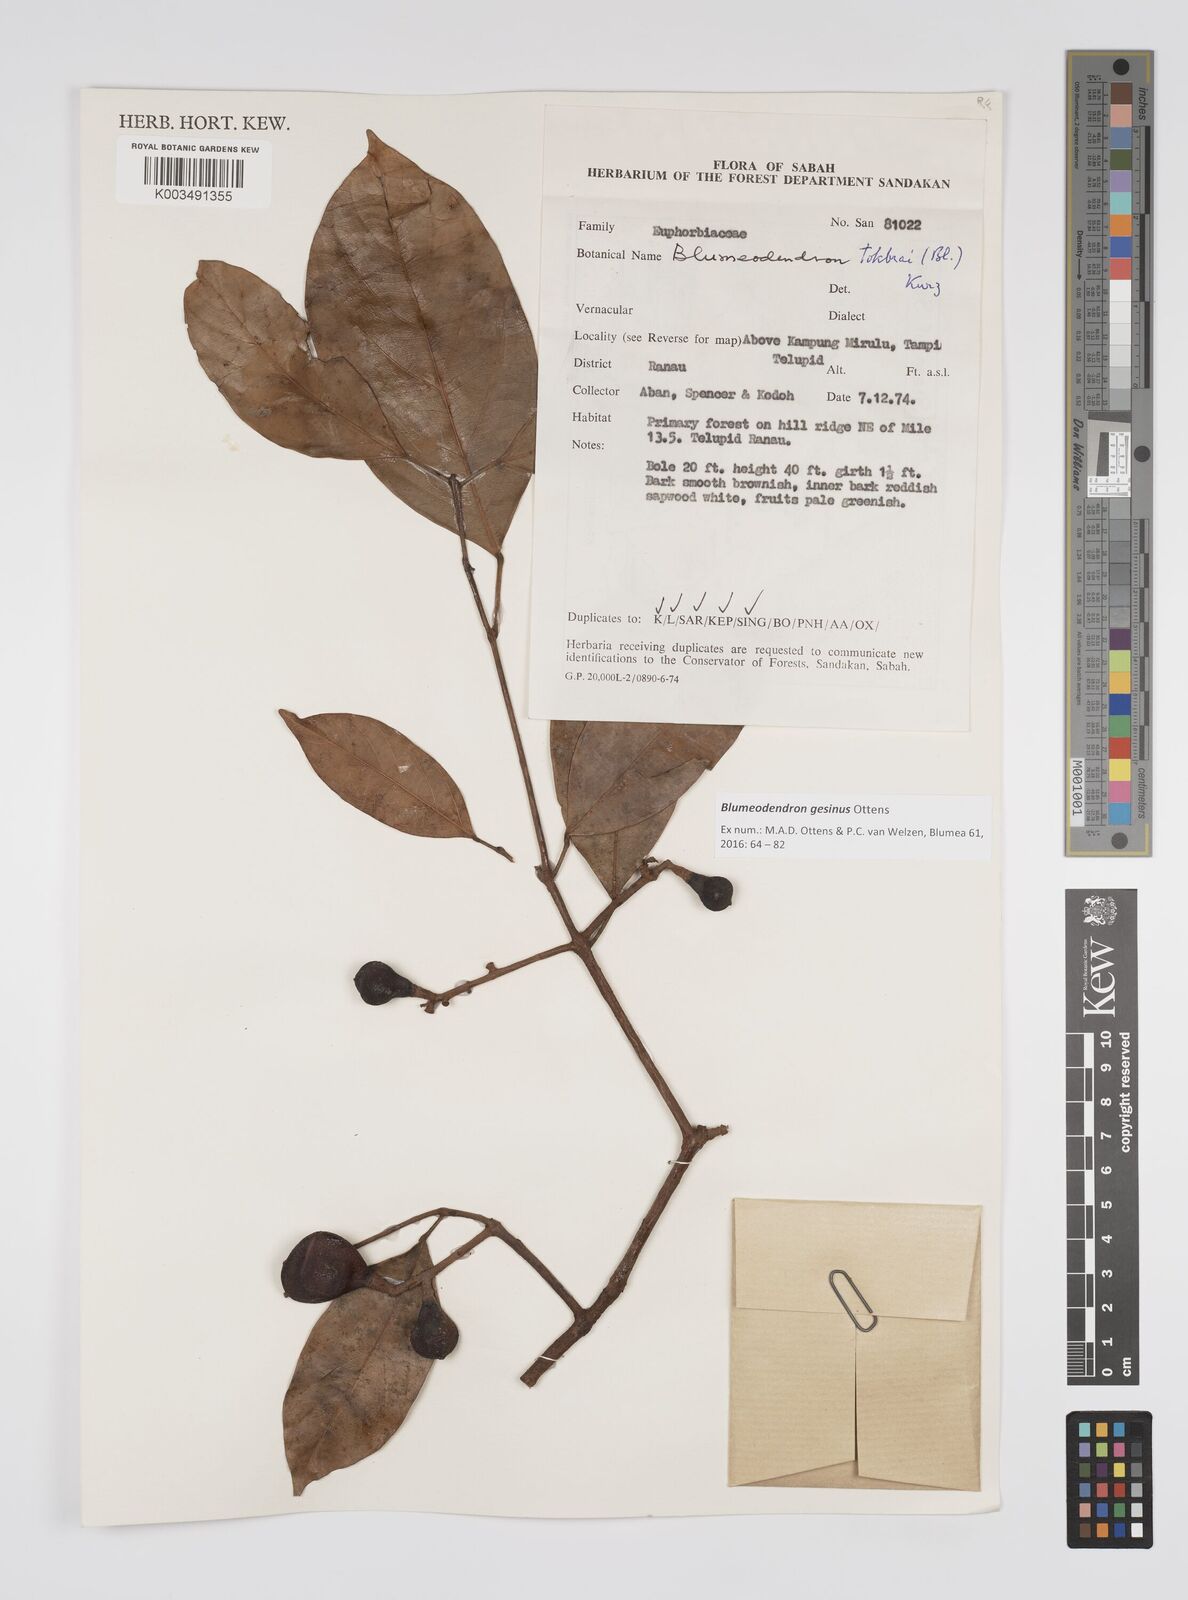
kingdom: Plantae
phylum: Tracheophyta
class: Magnoliopsida
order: Malpighiales
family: Euphorbiaceae
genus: Blumeodendron
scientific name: Blumeodendron gesinus
